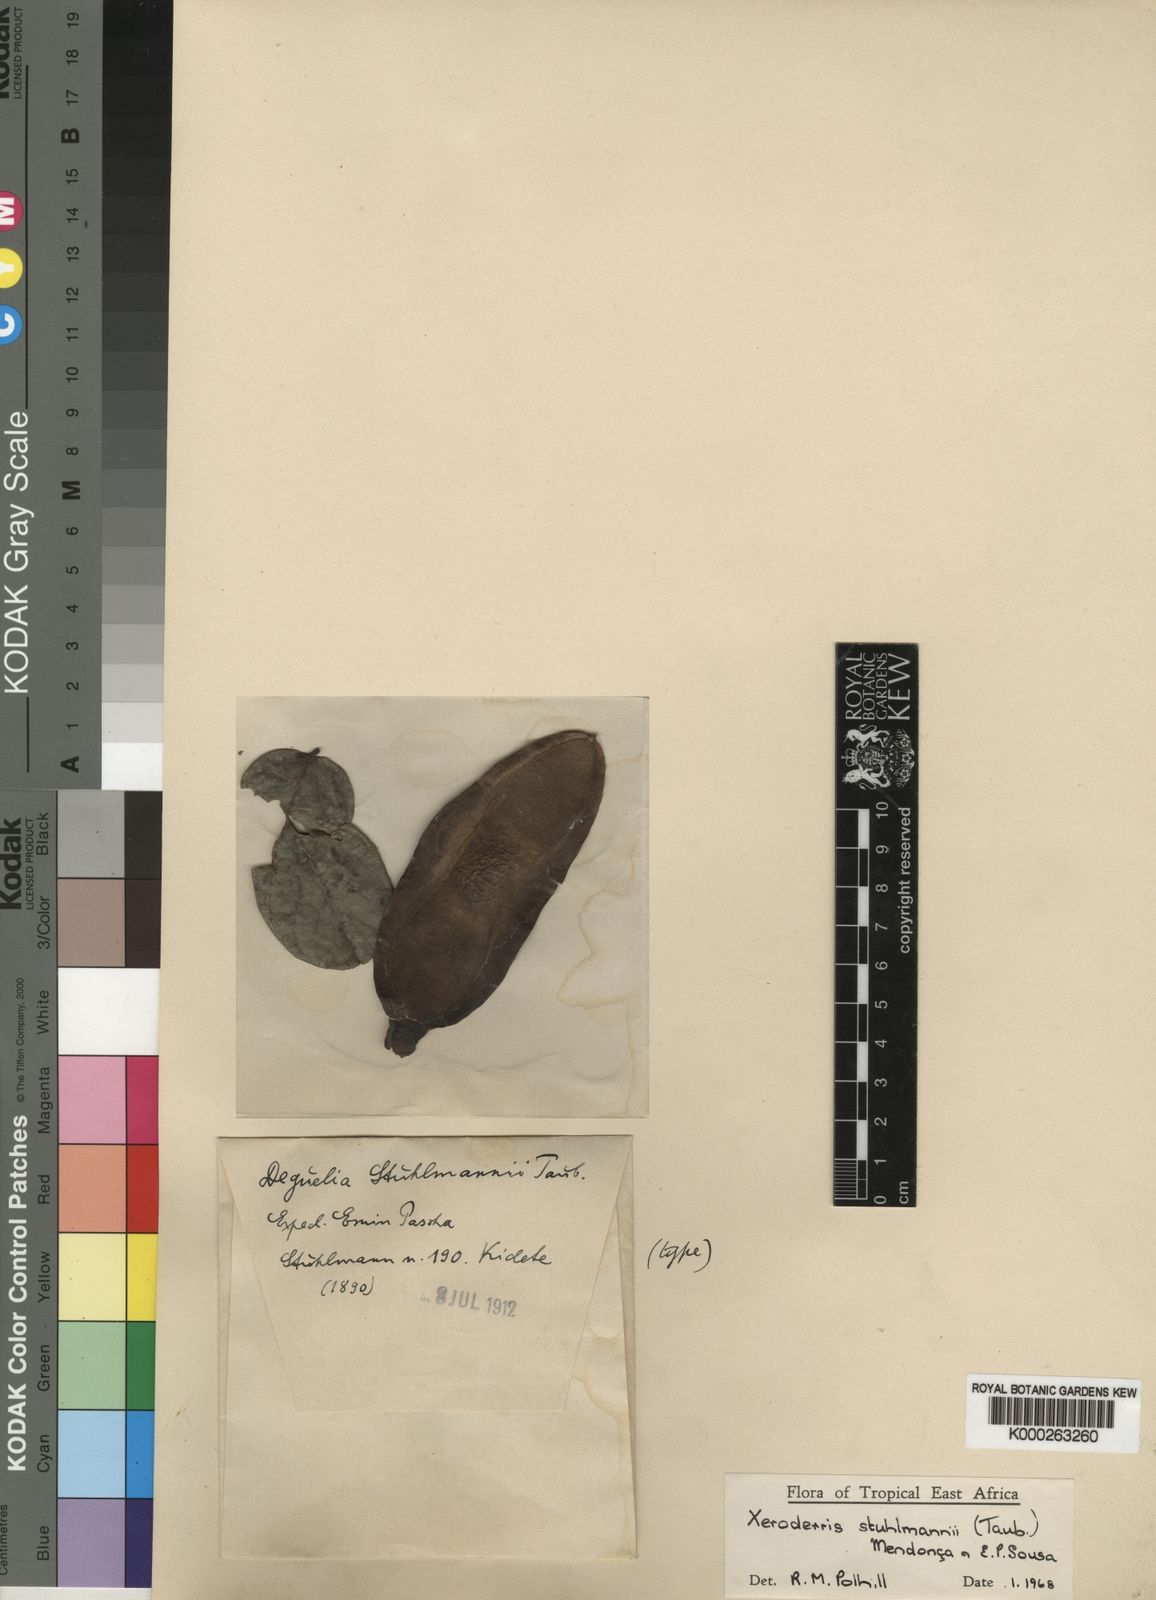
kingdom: Plantae
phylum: Tracheophyta
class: Magnoliopsida
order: Fabales
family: Fabaceae
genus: Aganope
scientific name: Aganope stuhlmannii
